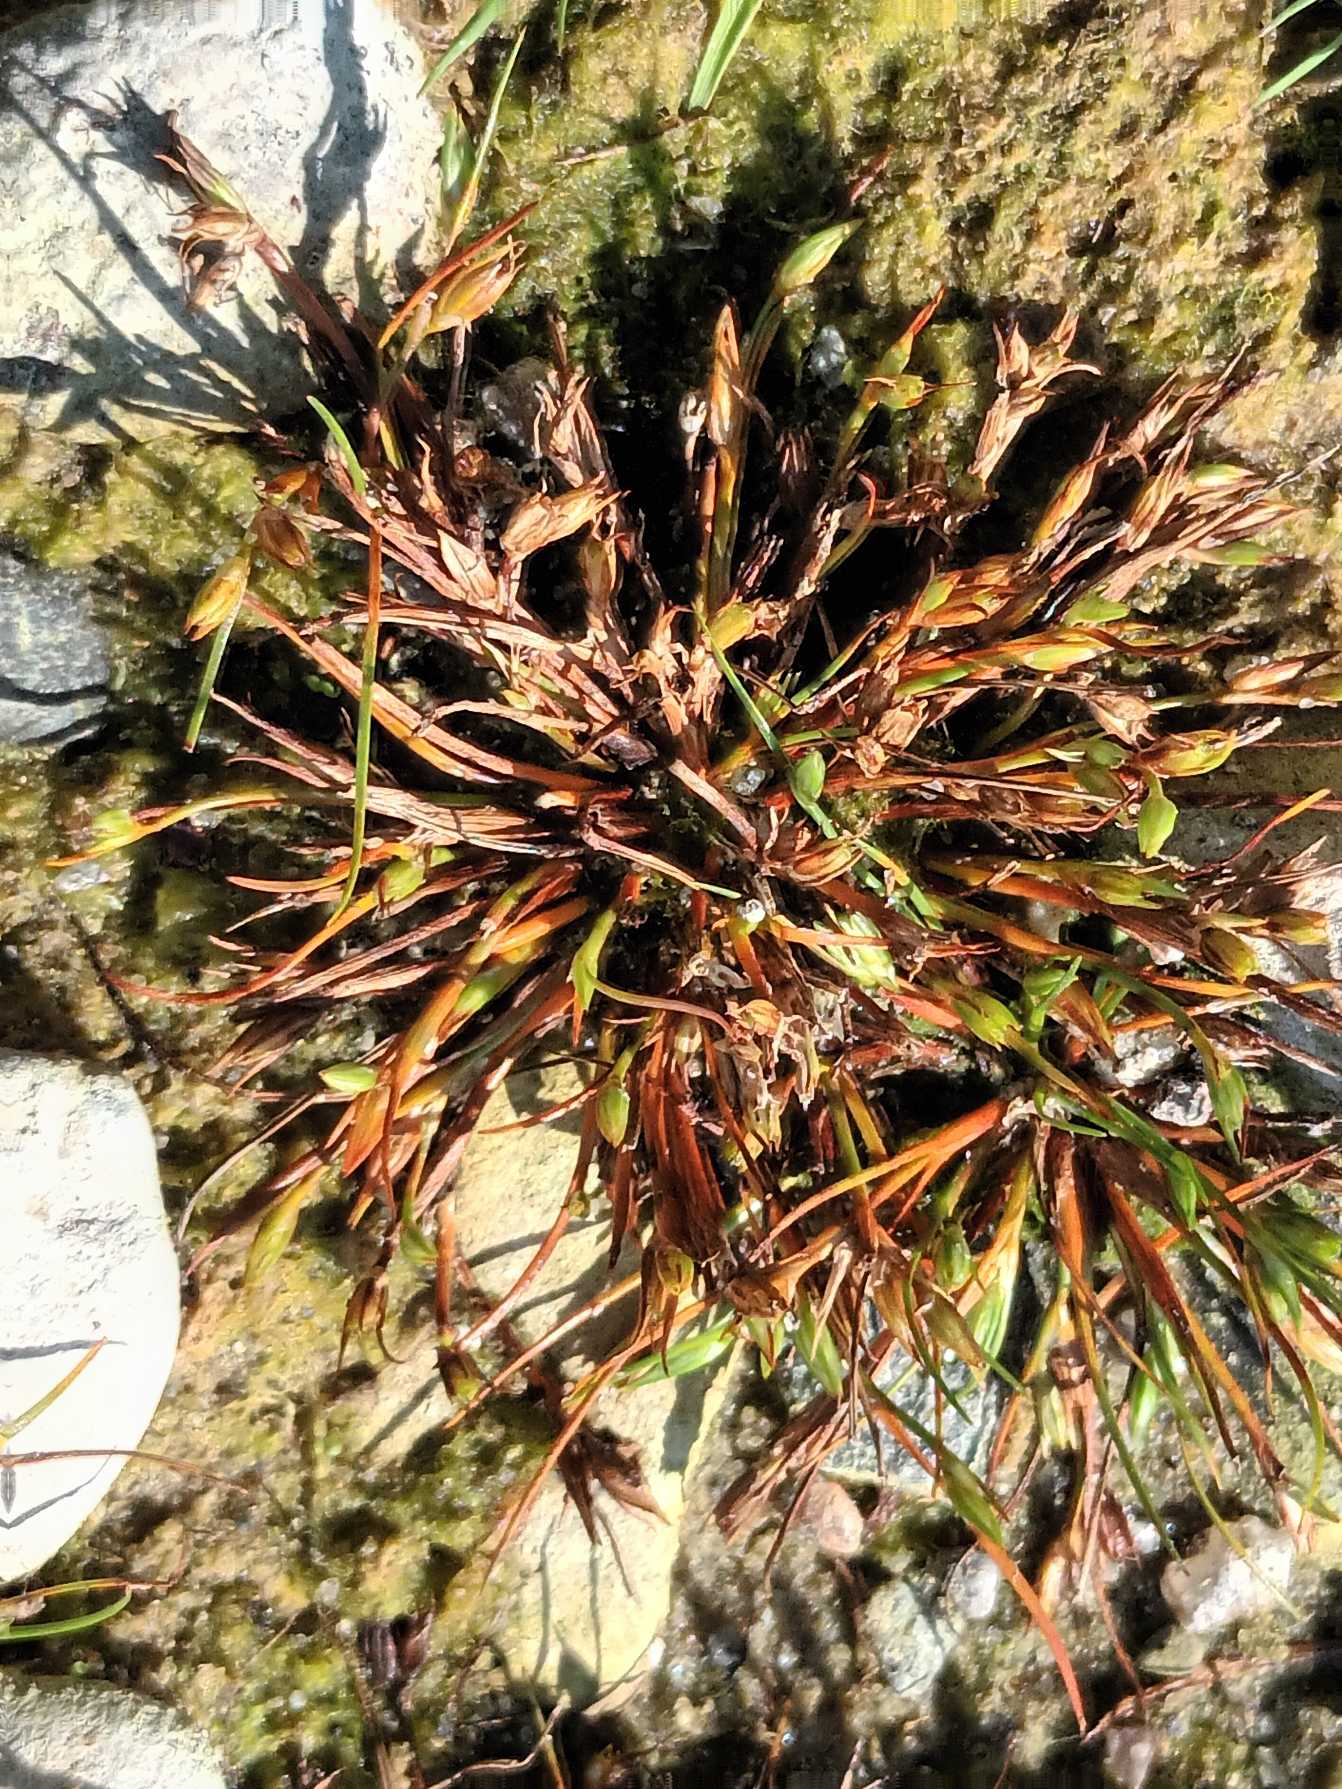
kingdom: Plantae
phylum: Tracheophyta
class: Liliopsida
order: Poales
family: Juncaceae
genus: Juncus
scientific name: Juncus ranarius
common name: Klæg-siv
